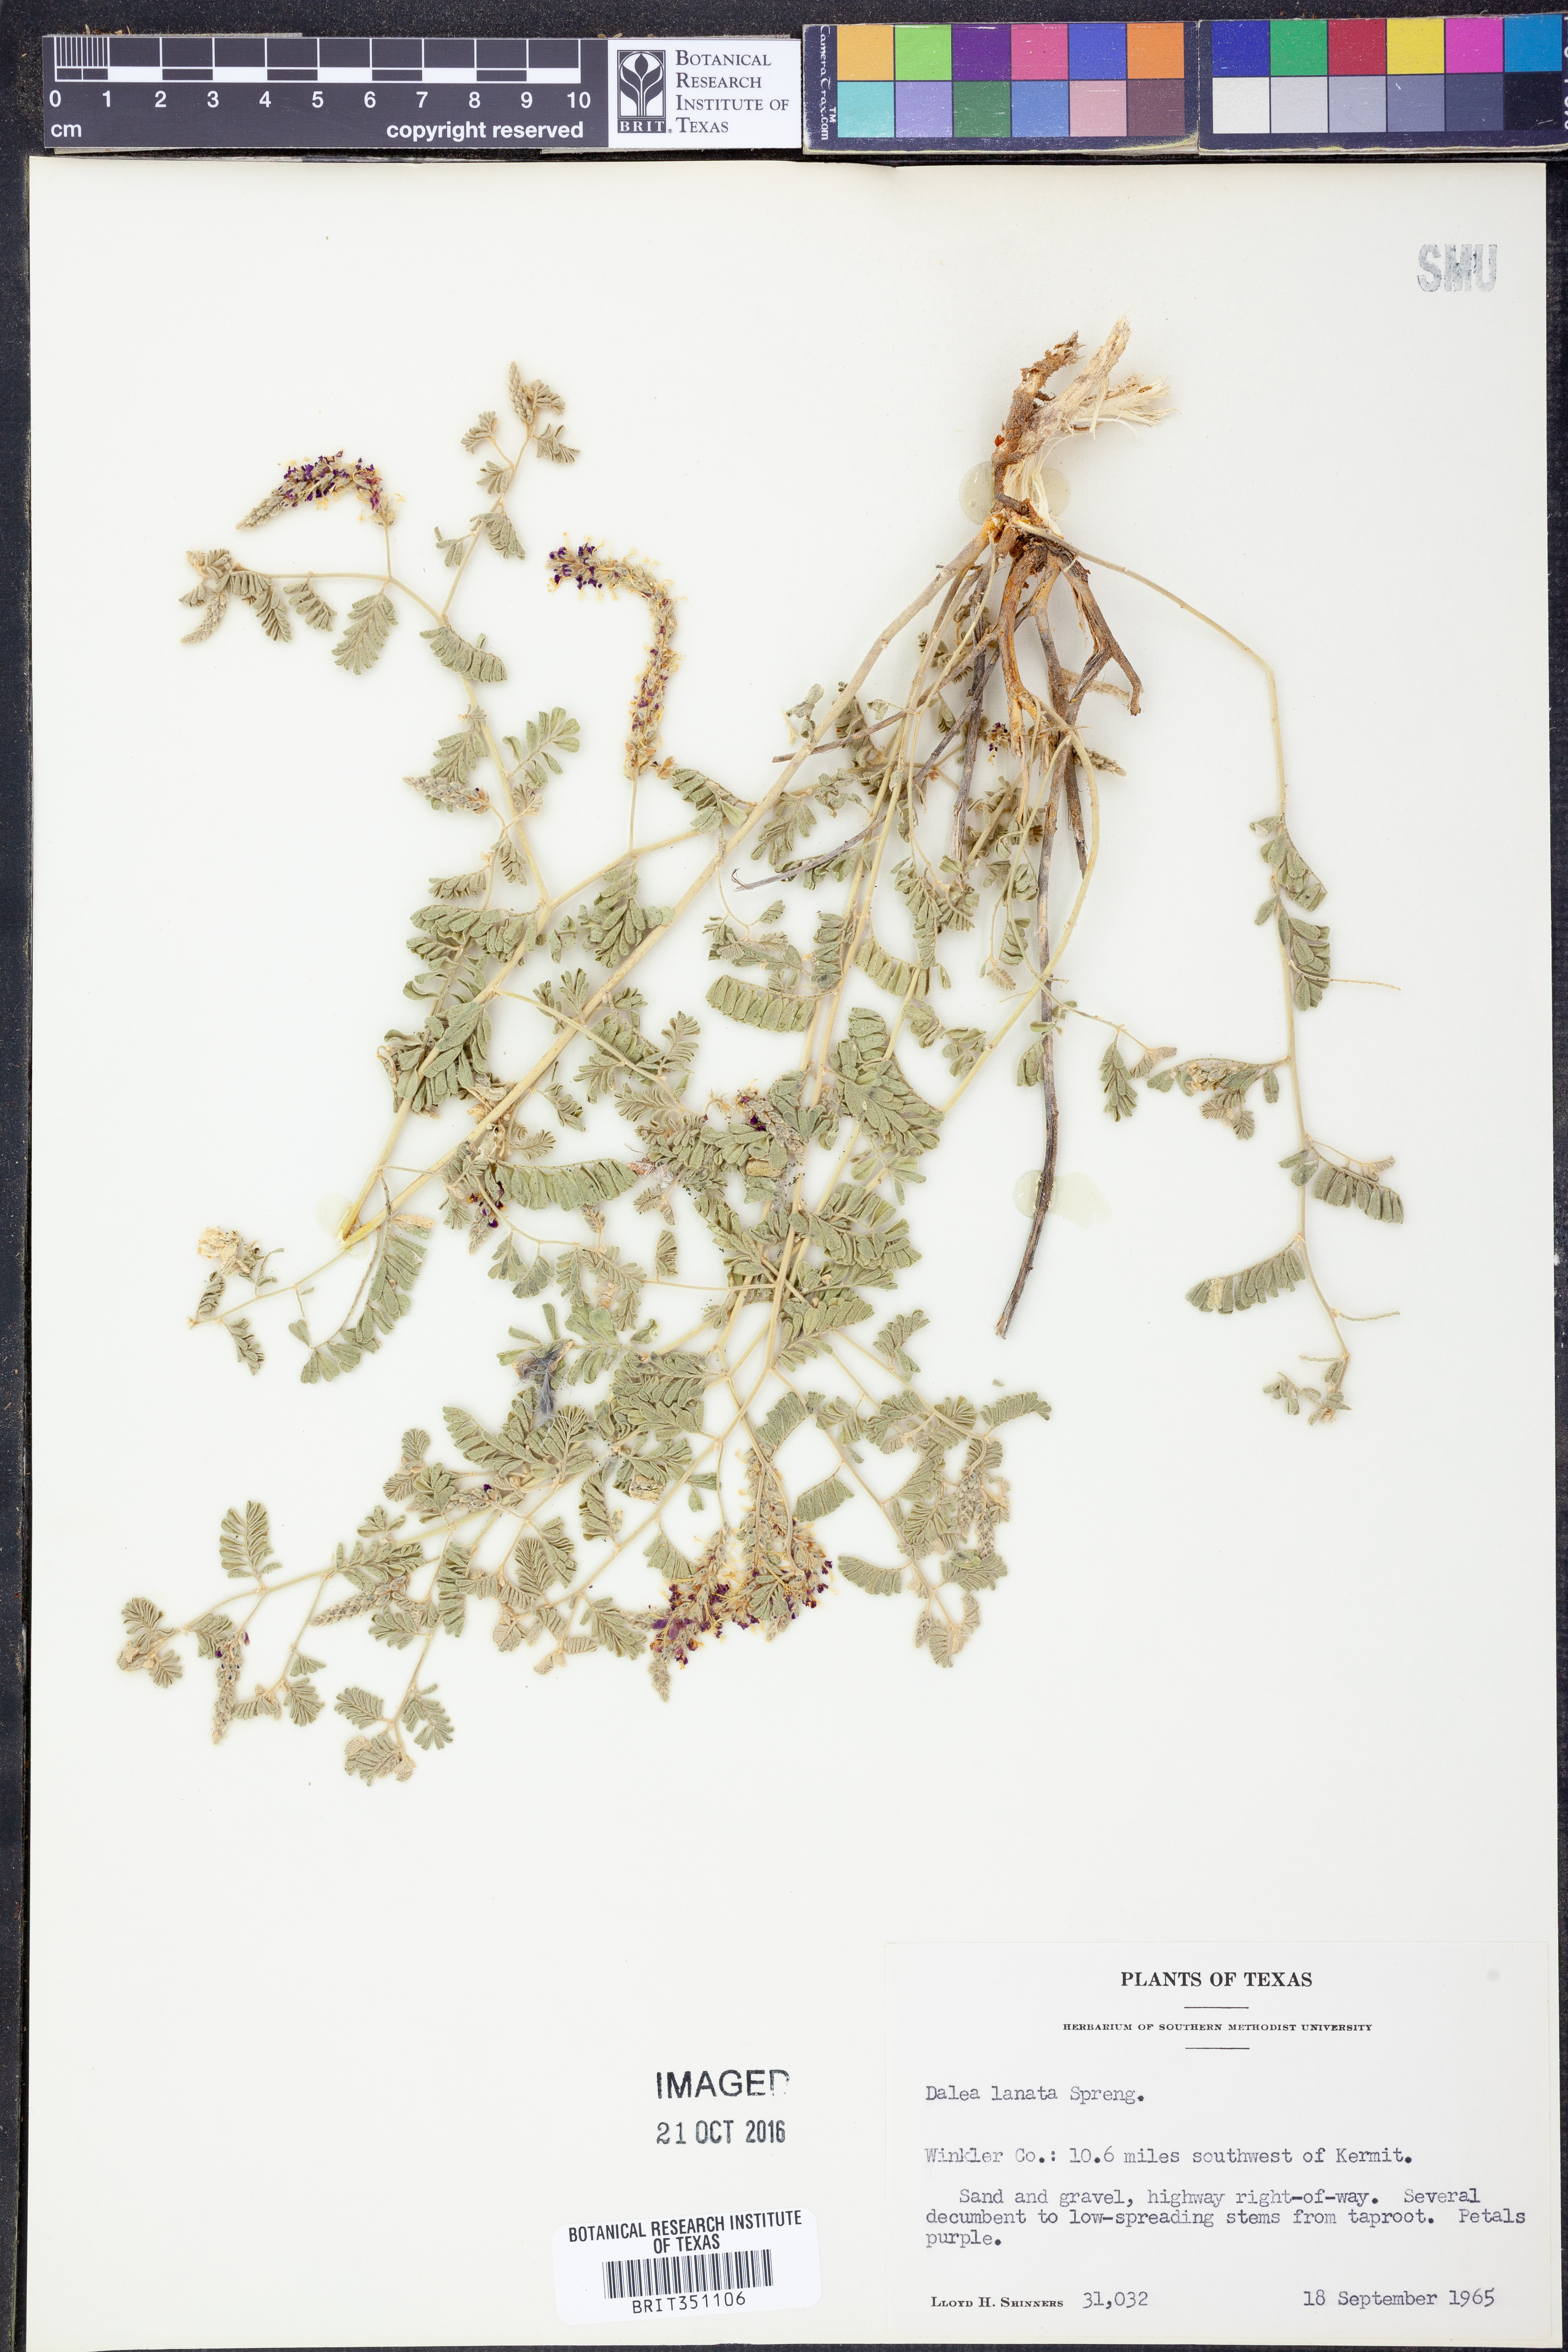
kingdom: Plantae
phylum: Tracheophyta
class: Magnoliopsida
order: Fabales
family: Fabaceae
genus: Dalea
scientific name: Dalea lanata
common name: Woolly dalea
